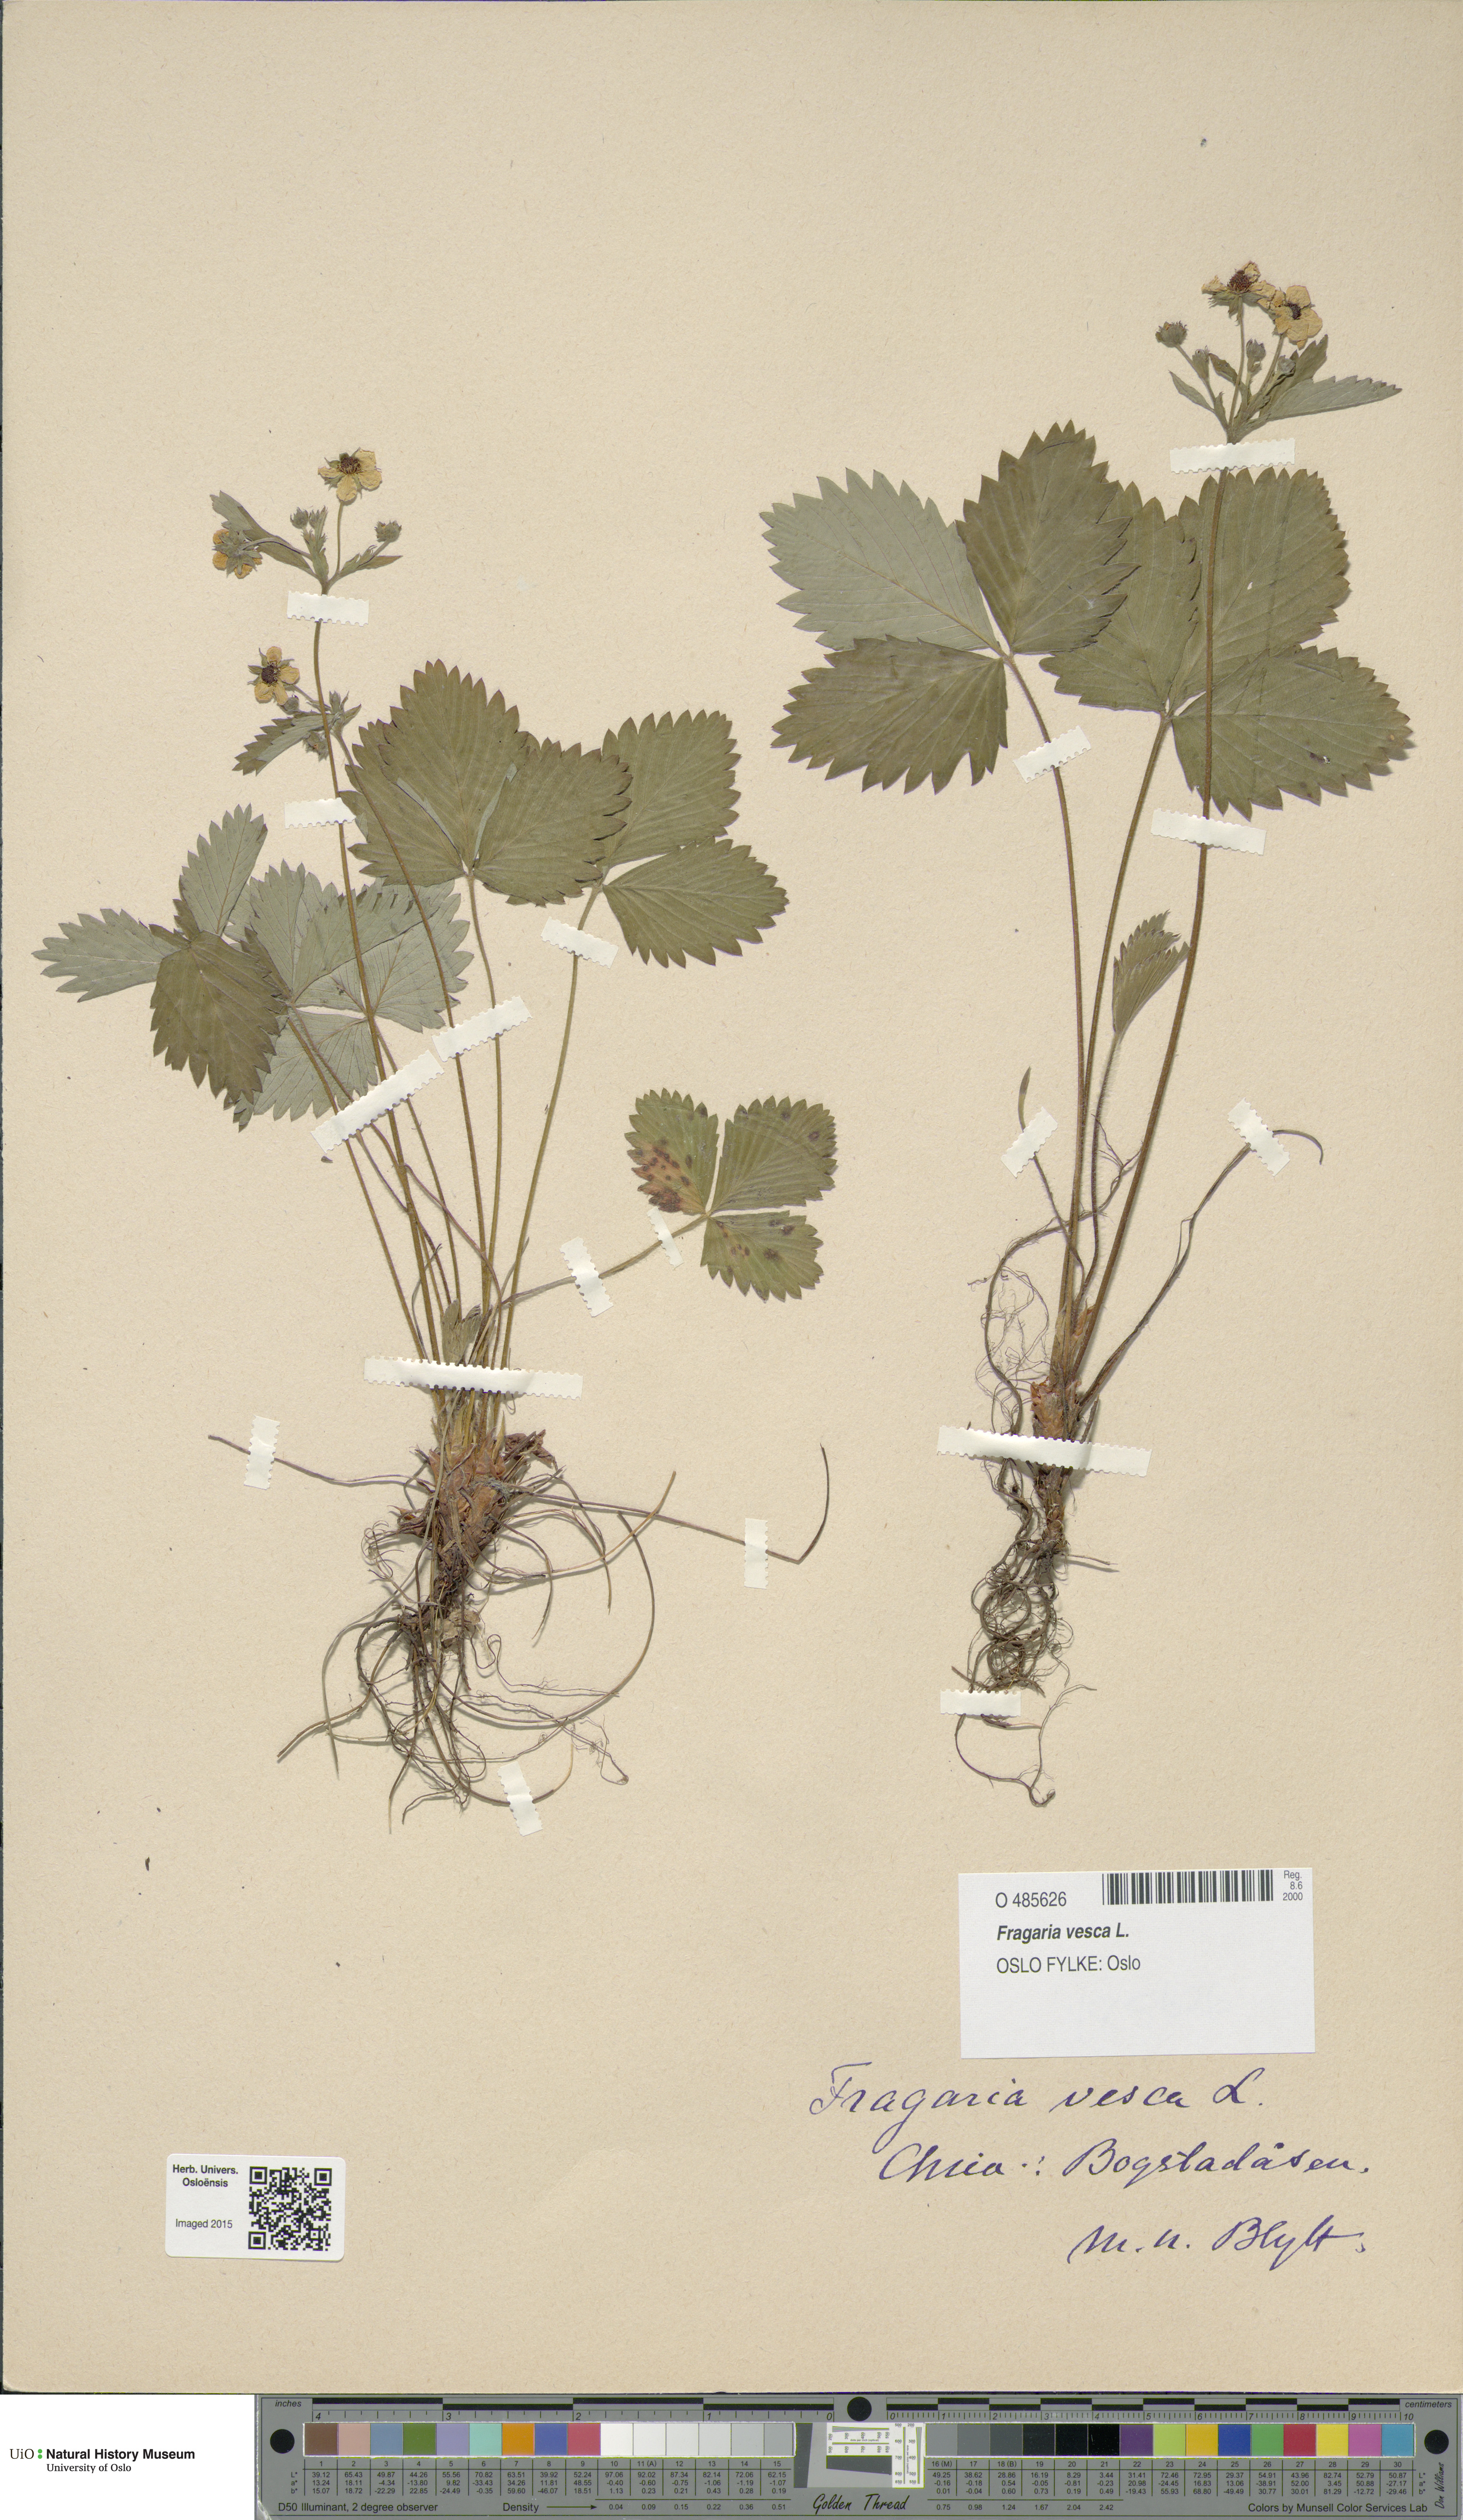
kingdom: Plantae
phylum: Tracheophyta
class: Magnoliopsida
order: Rosales
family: Rosaceae
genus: Fragaria
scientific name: Fragaria vesca
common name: Wild strawberry
